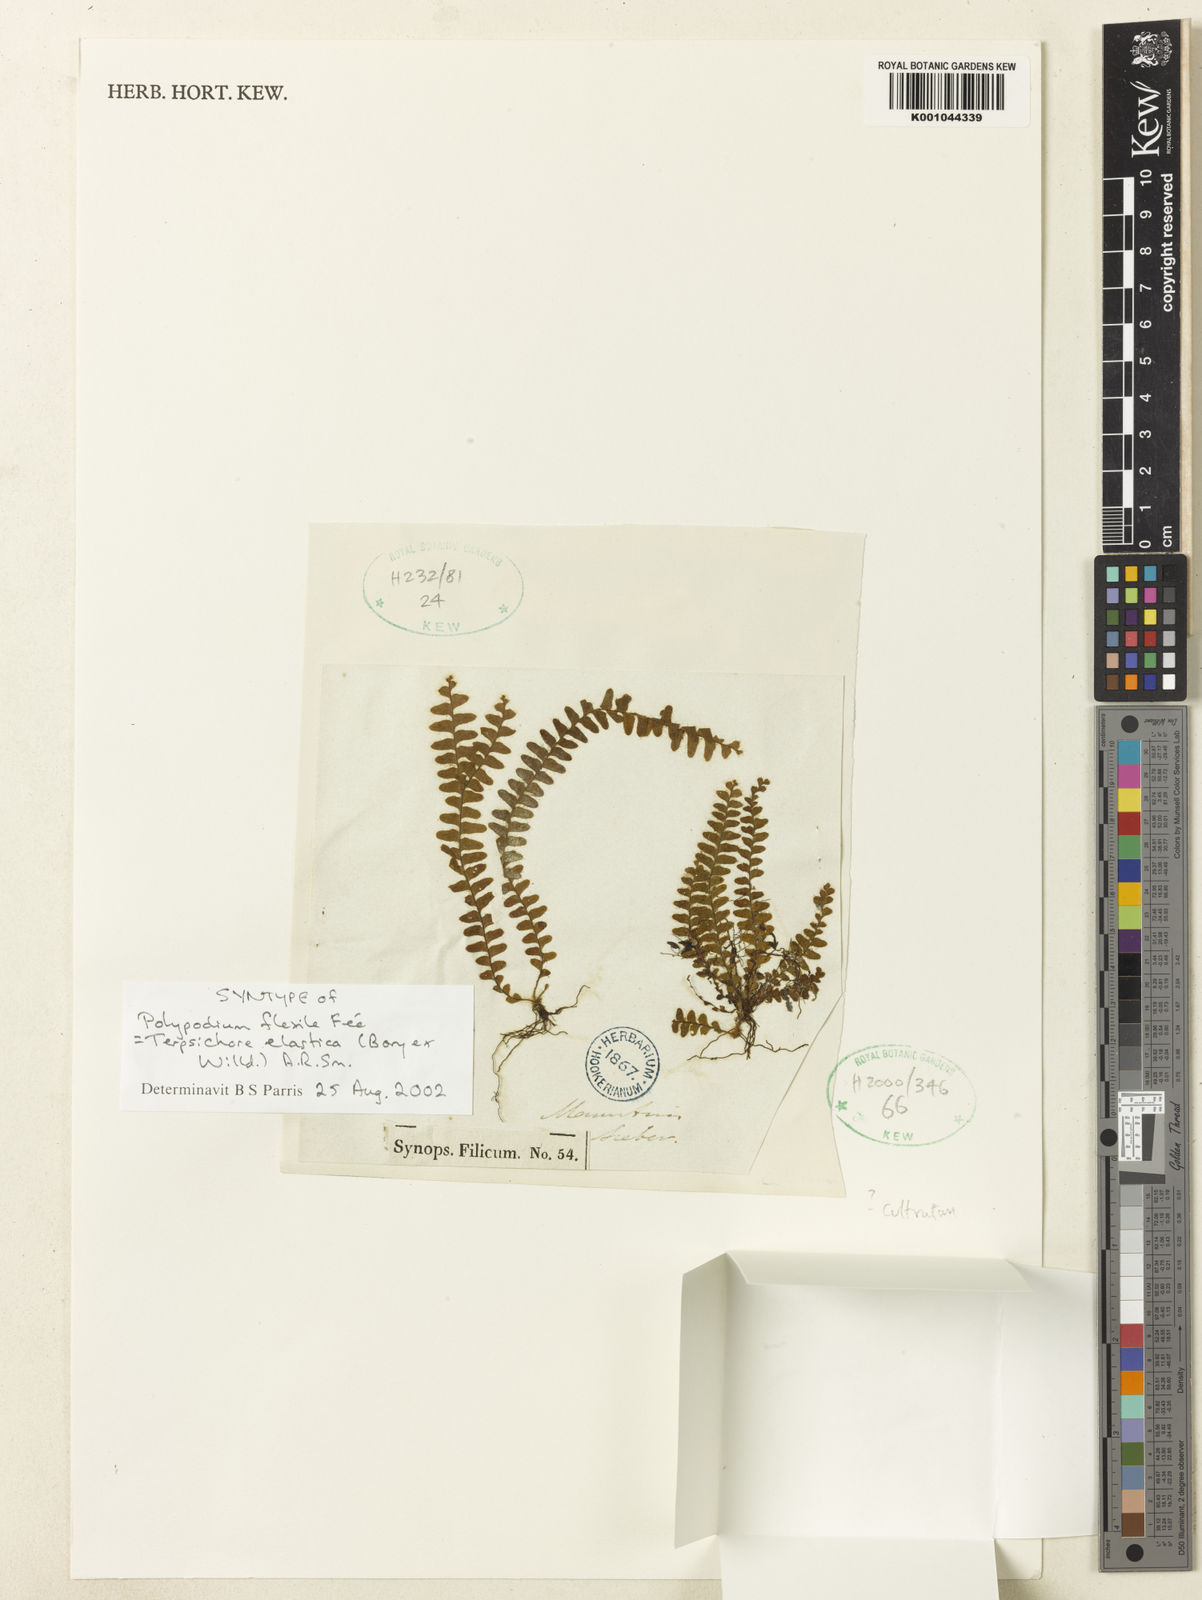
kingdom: Plantae
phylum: Tracheophyta
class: Polypodiopsida
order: Polypodiales
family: Polypodiaceae
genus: Alansmia
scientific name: Alansmia elastica
